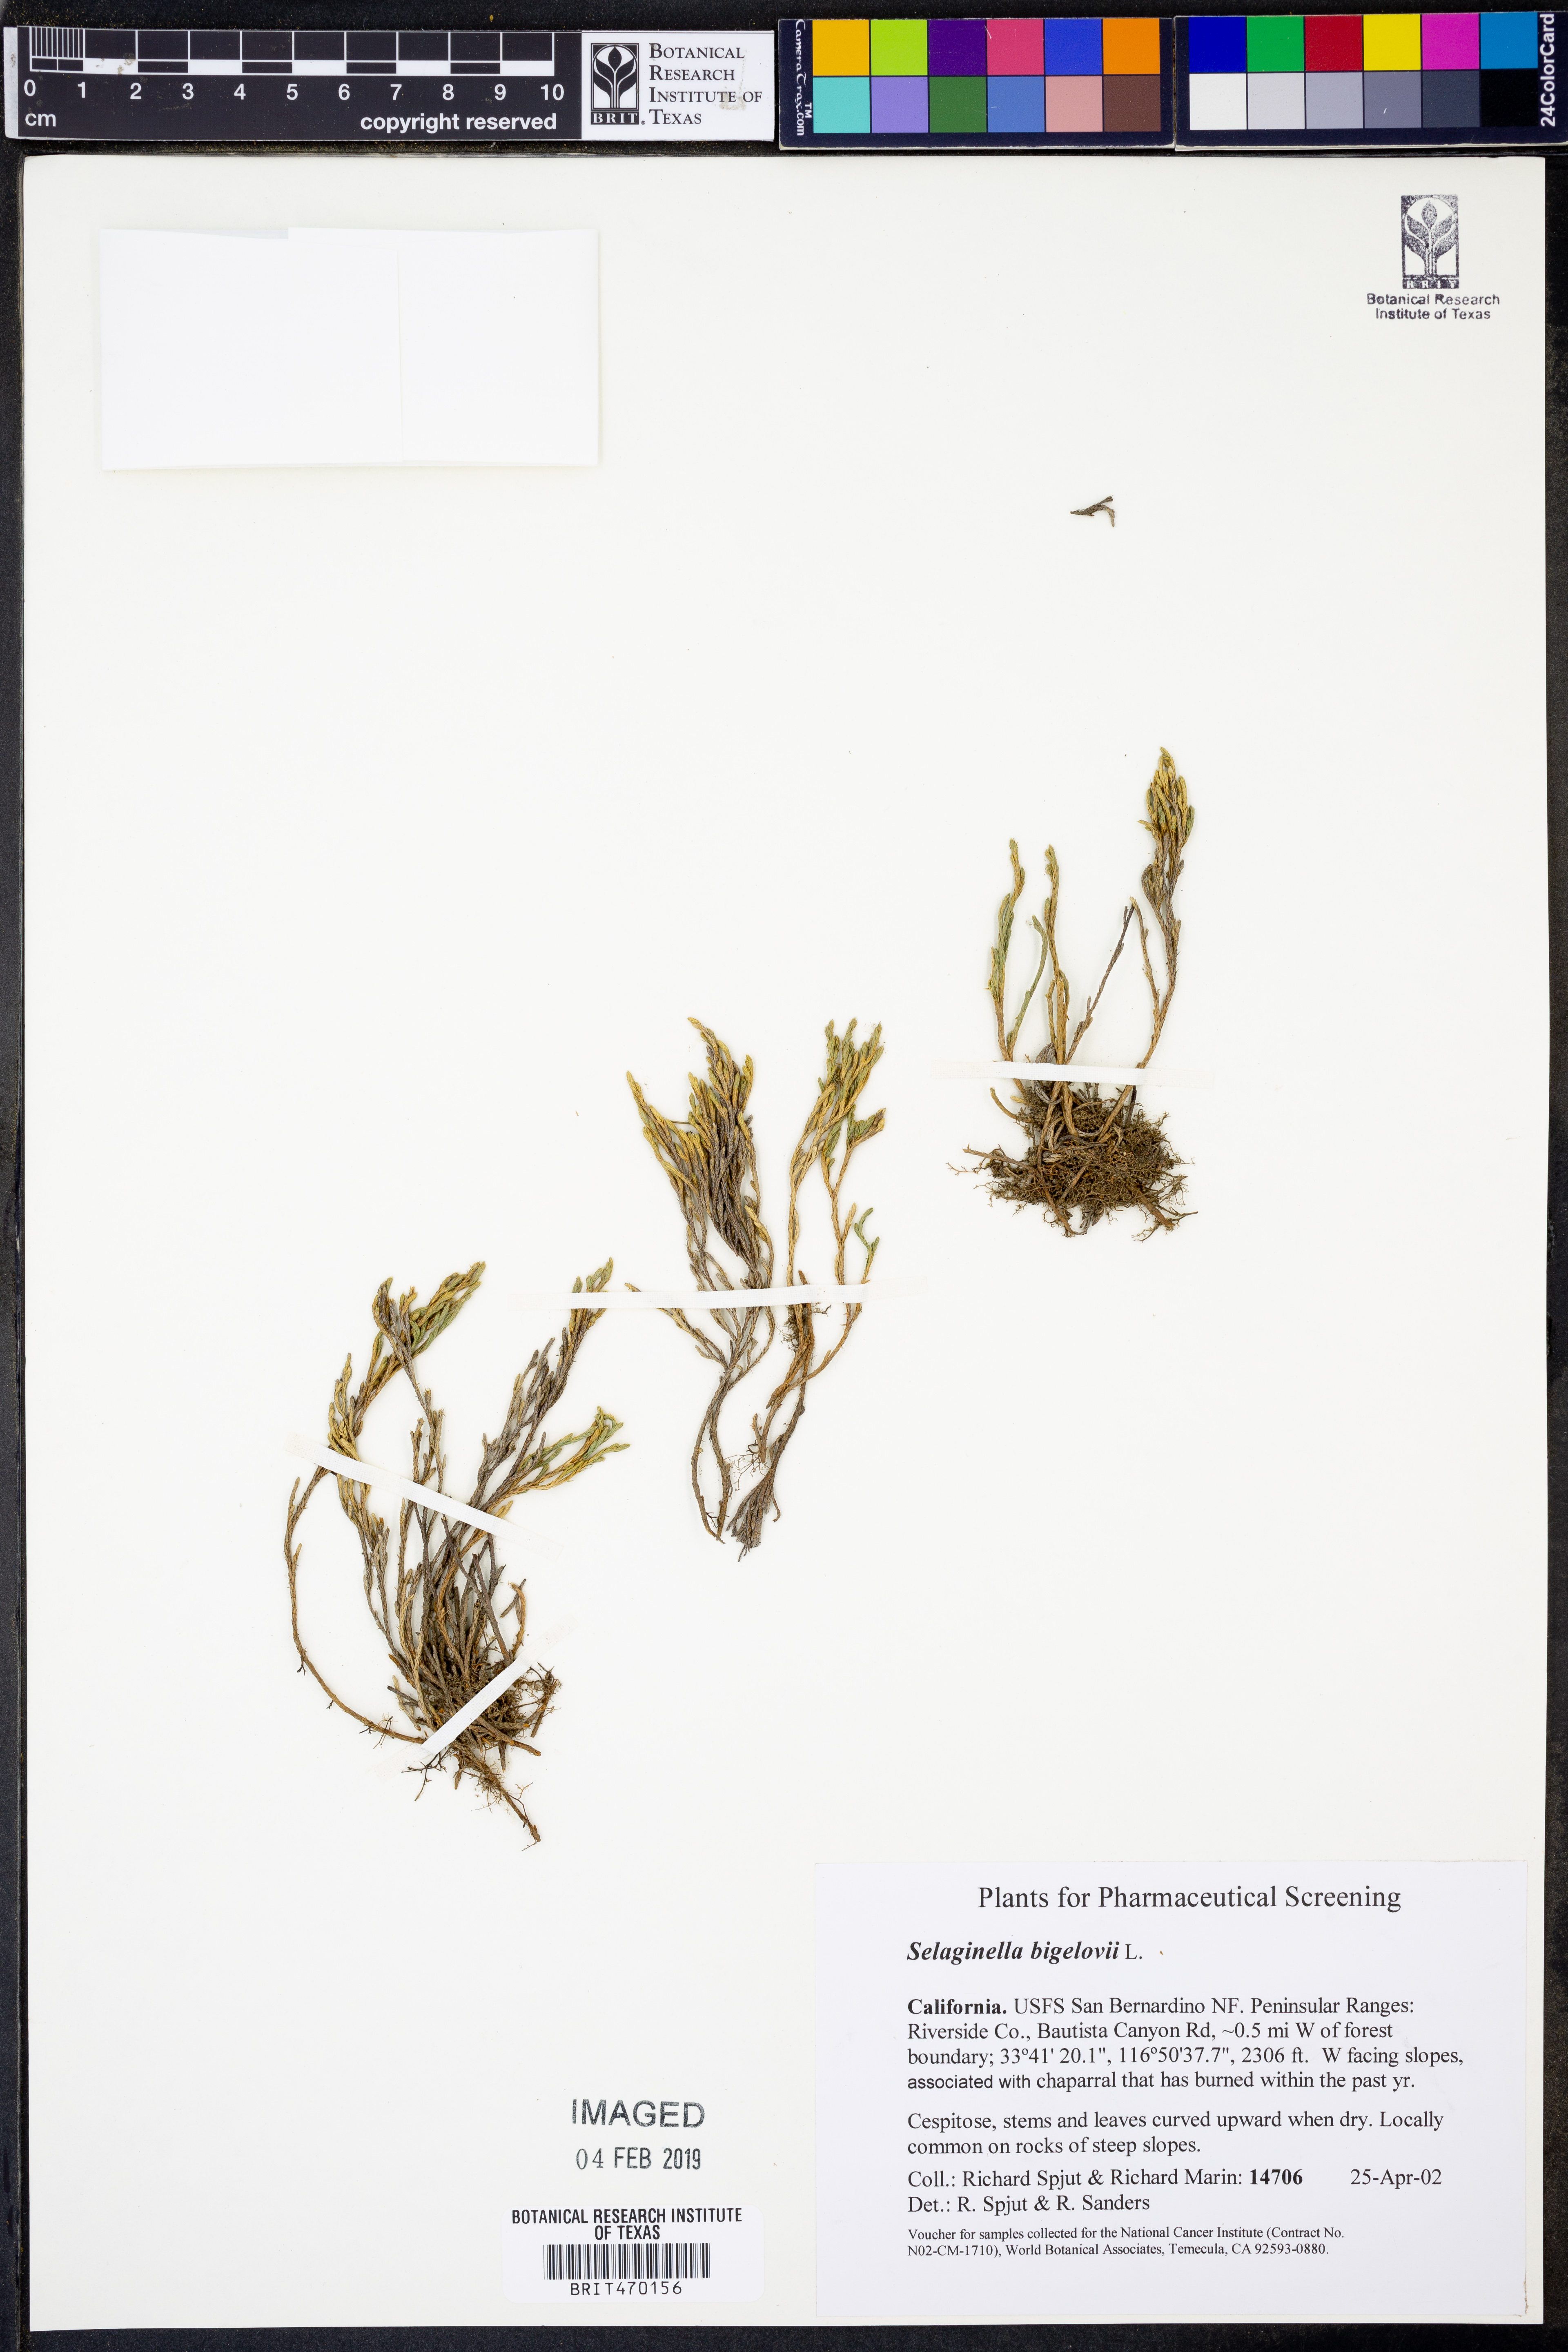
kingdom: Plantae
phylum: Tracheophyta
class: Lycopodiopsida
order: Selaginellales
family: Selaginellaceae
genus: Selaginella
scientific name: Selaginella bigelovii
